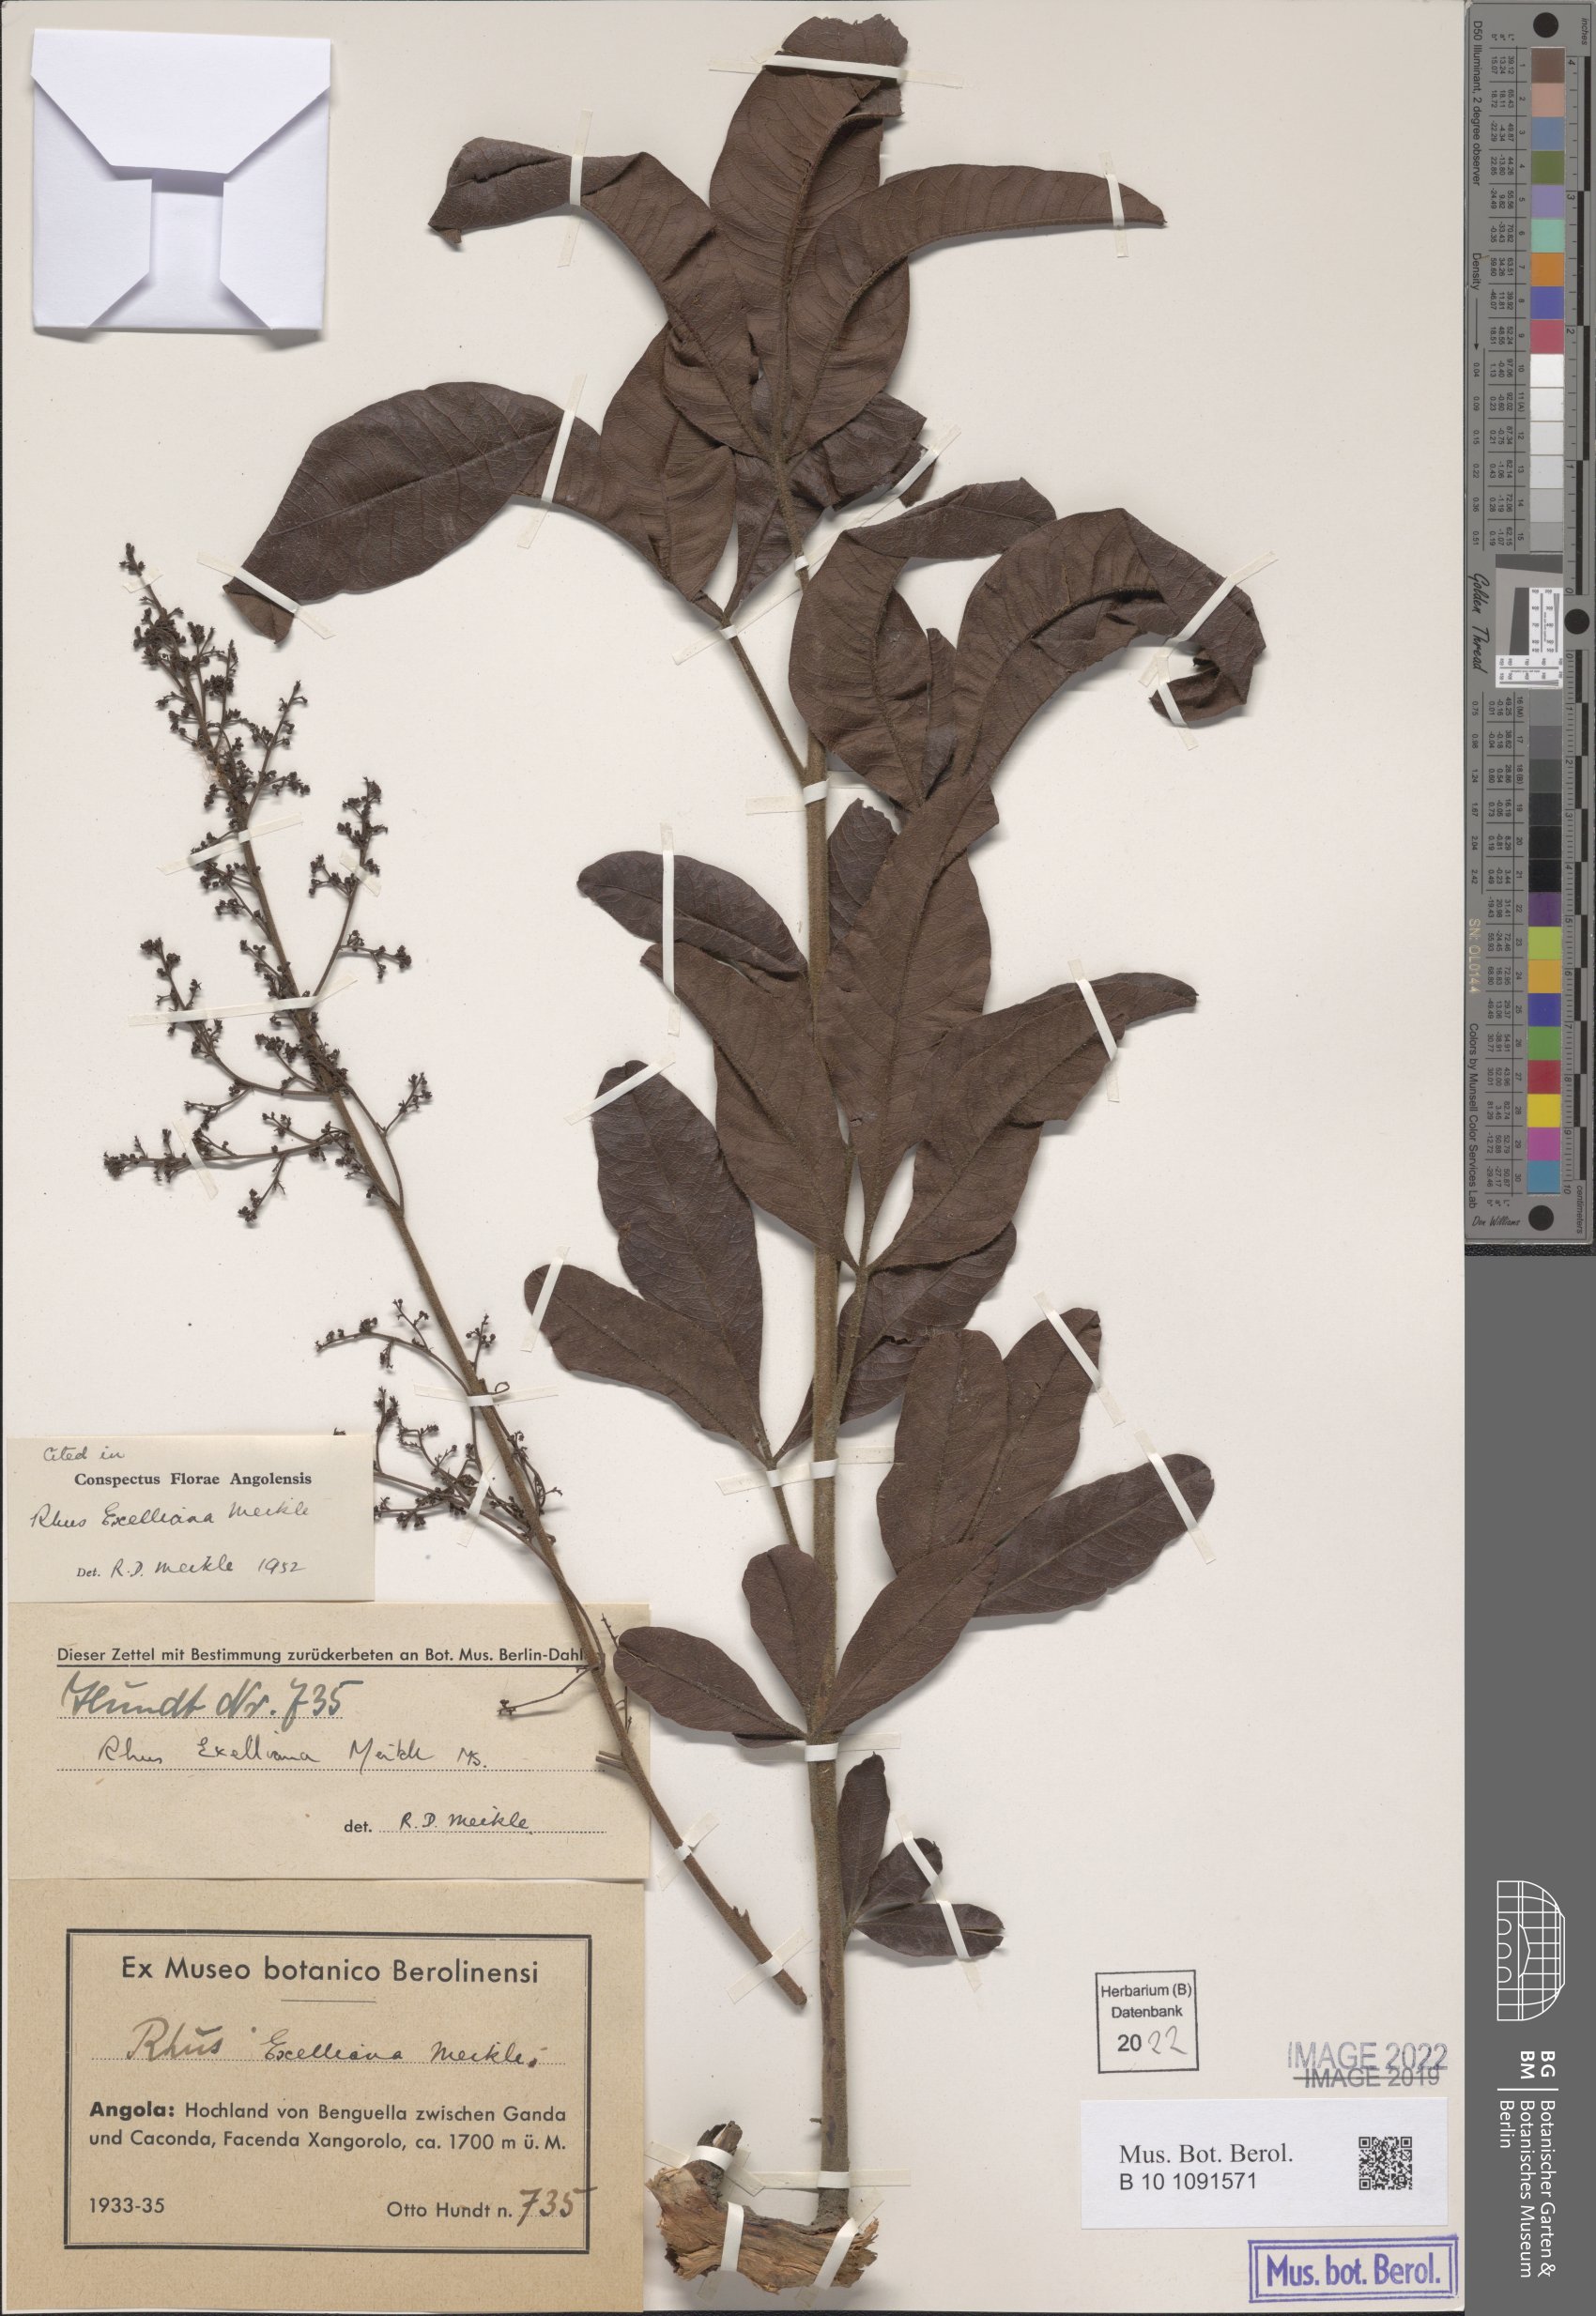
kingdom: Plantae
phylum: Tracheophyta
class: Magnoliopsida
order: Sapindales
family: Anacardiaceae
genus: Searsia
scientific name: Searsia blanda
